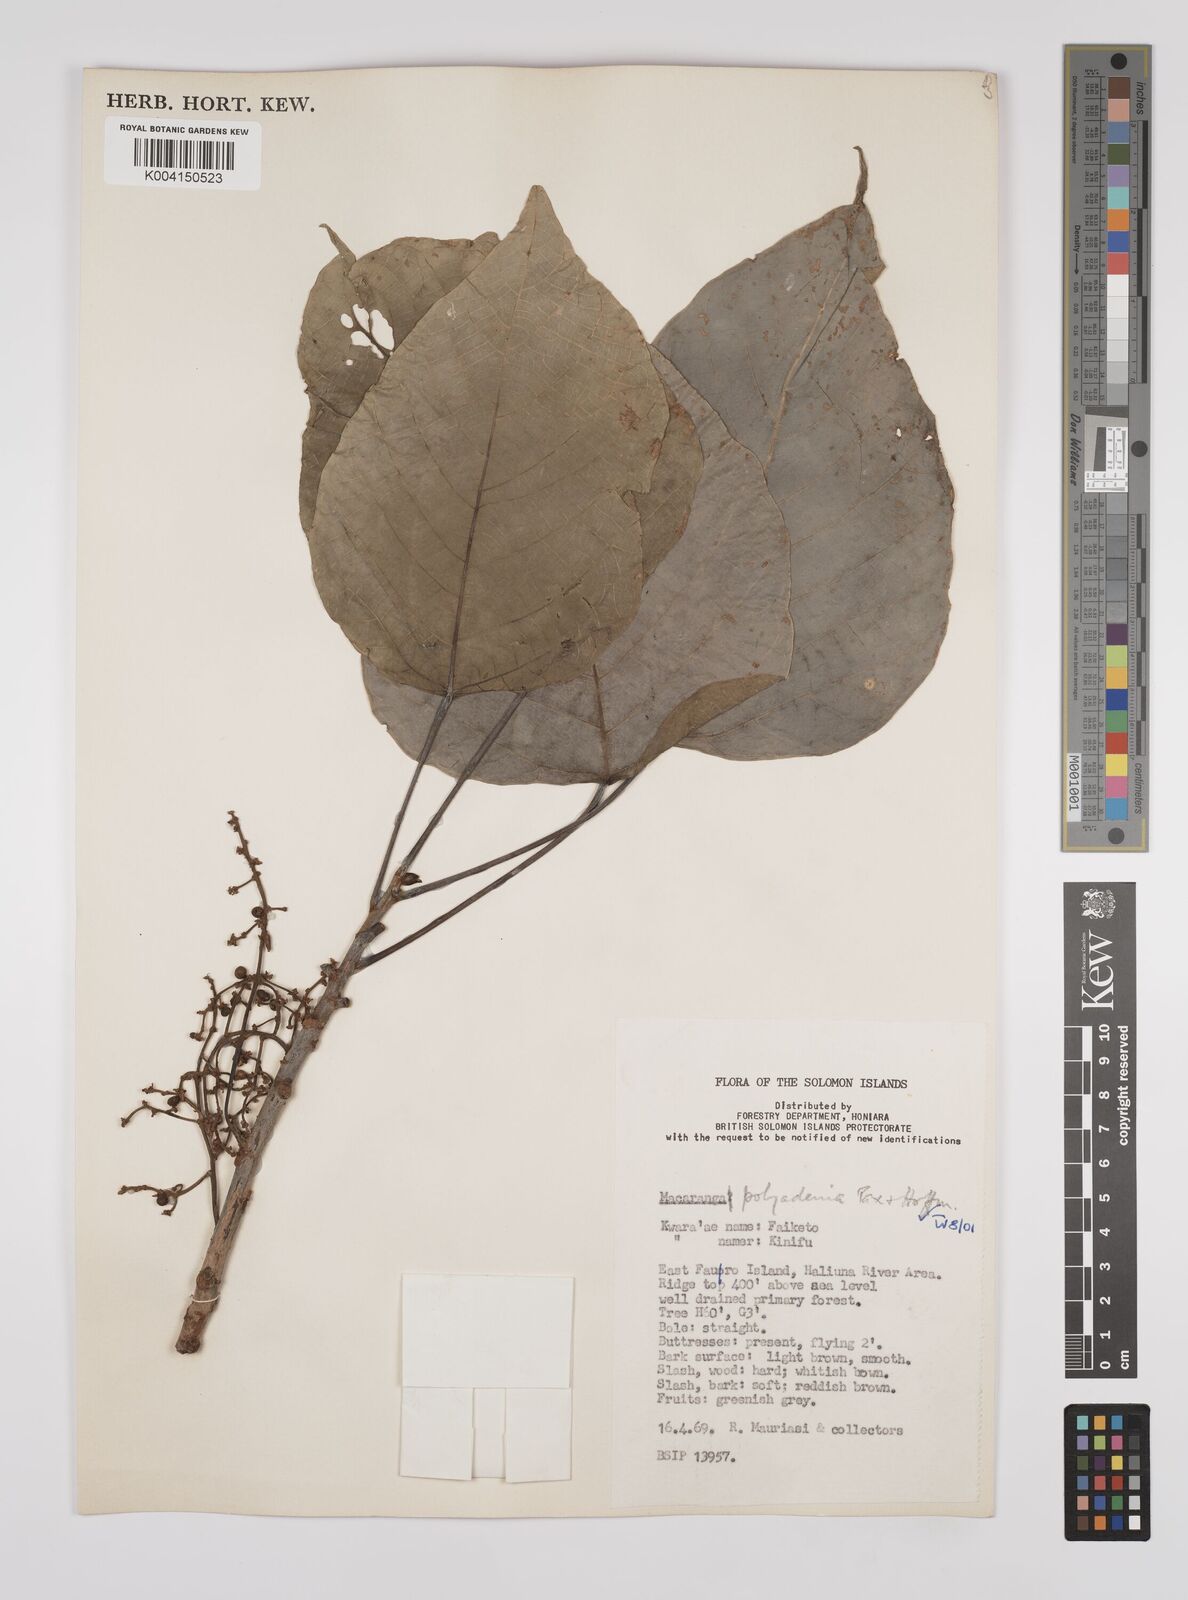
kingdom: Plantae
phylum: Tracheophyta
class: Magnoliopsida
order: Malpighiales
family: Euphorbiaceae
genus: Macaranga
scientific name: Macaranga polyadenia
